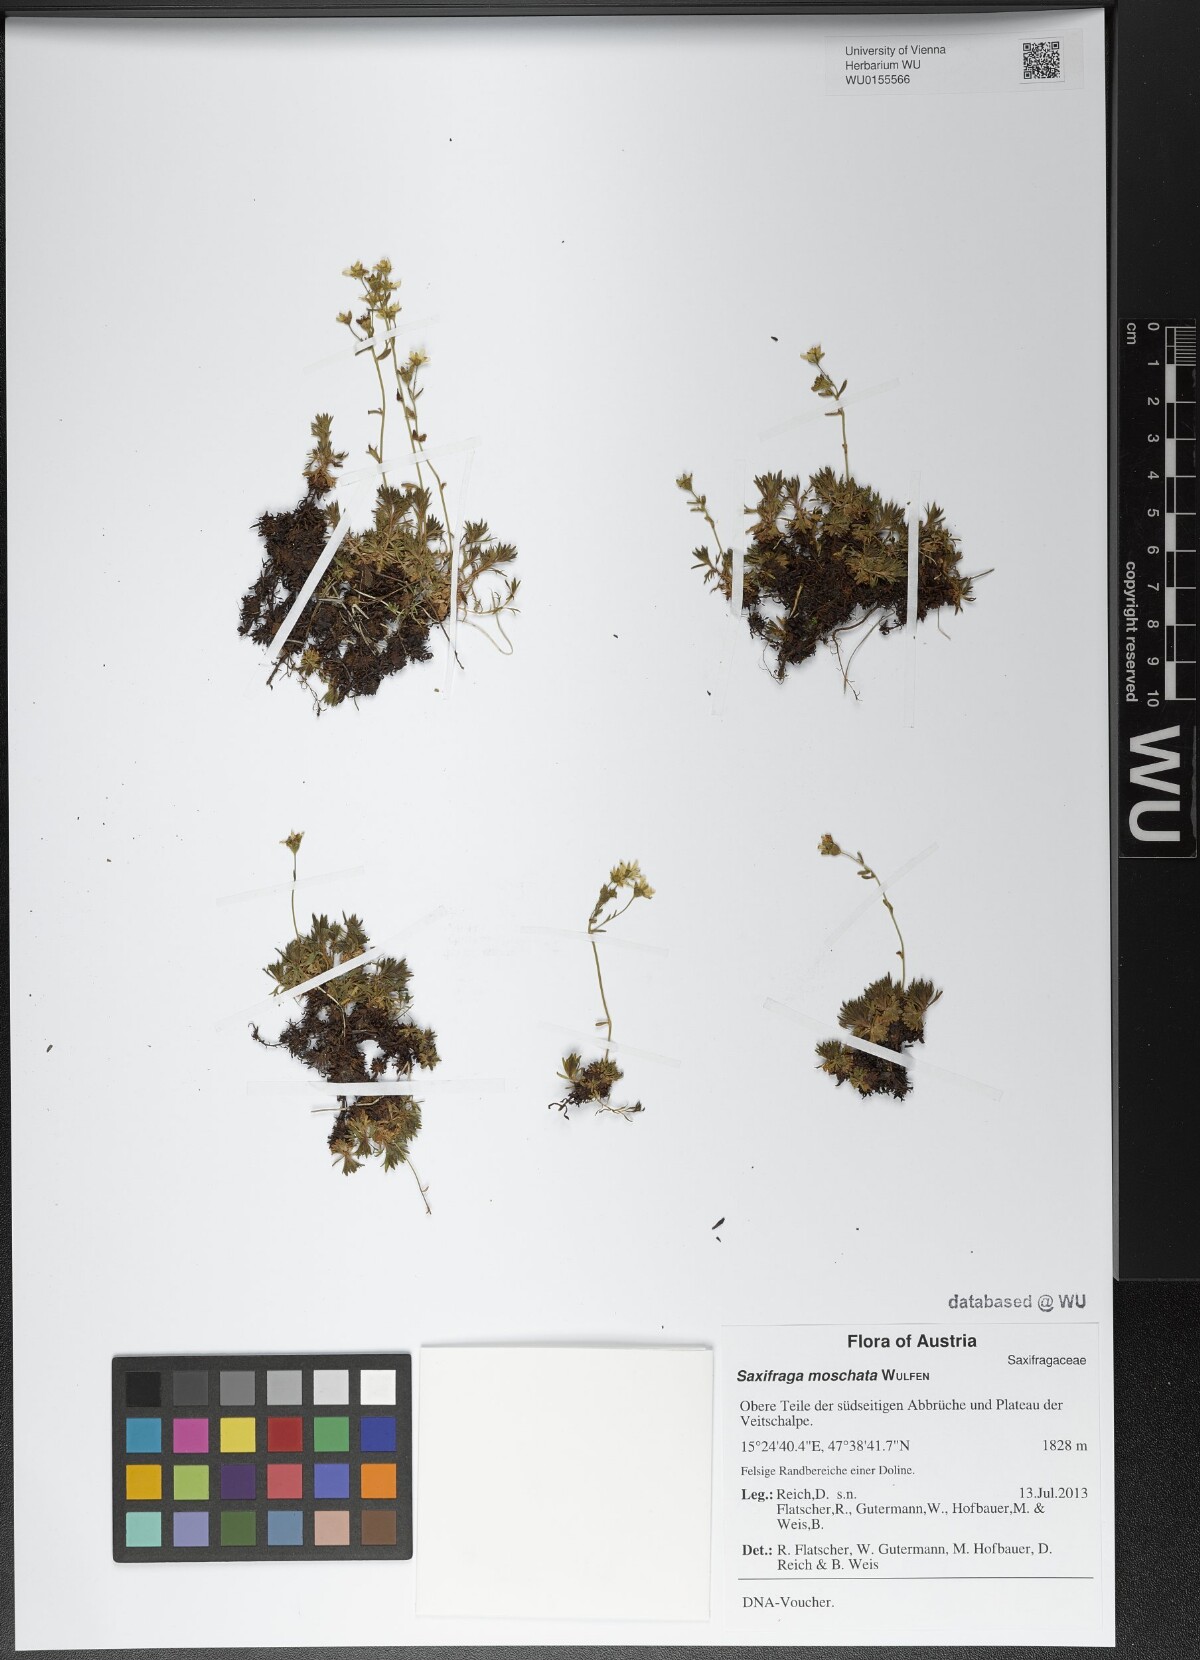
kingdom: Plantae
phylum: Tracheophyta
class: Magnoliopsida
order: Saxifragales
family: Saxifragaceae
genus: Saxifraga
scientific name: Saxifraga moschata
